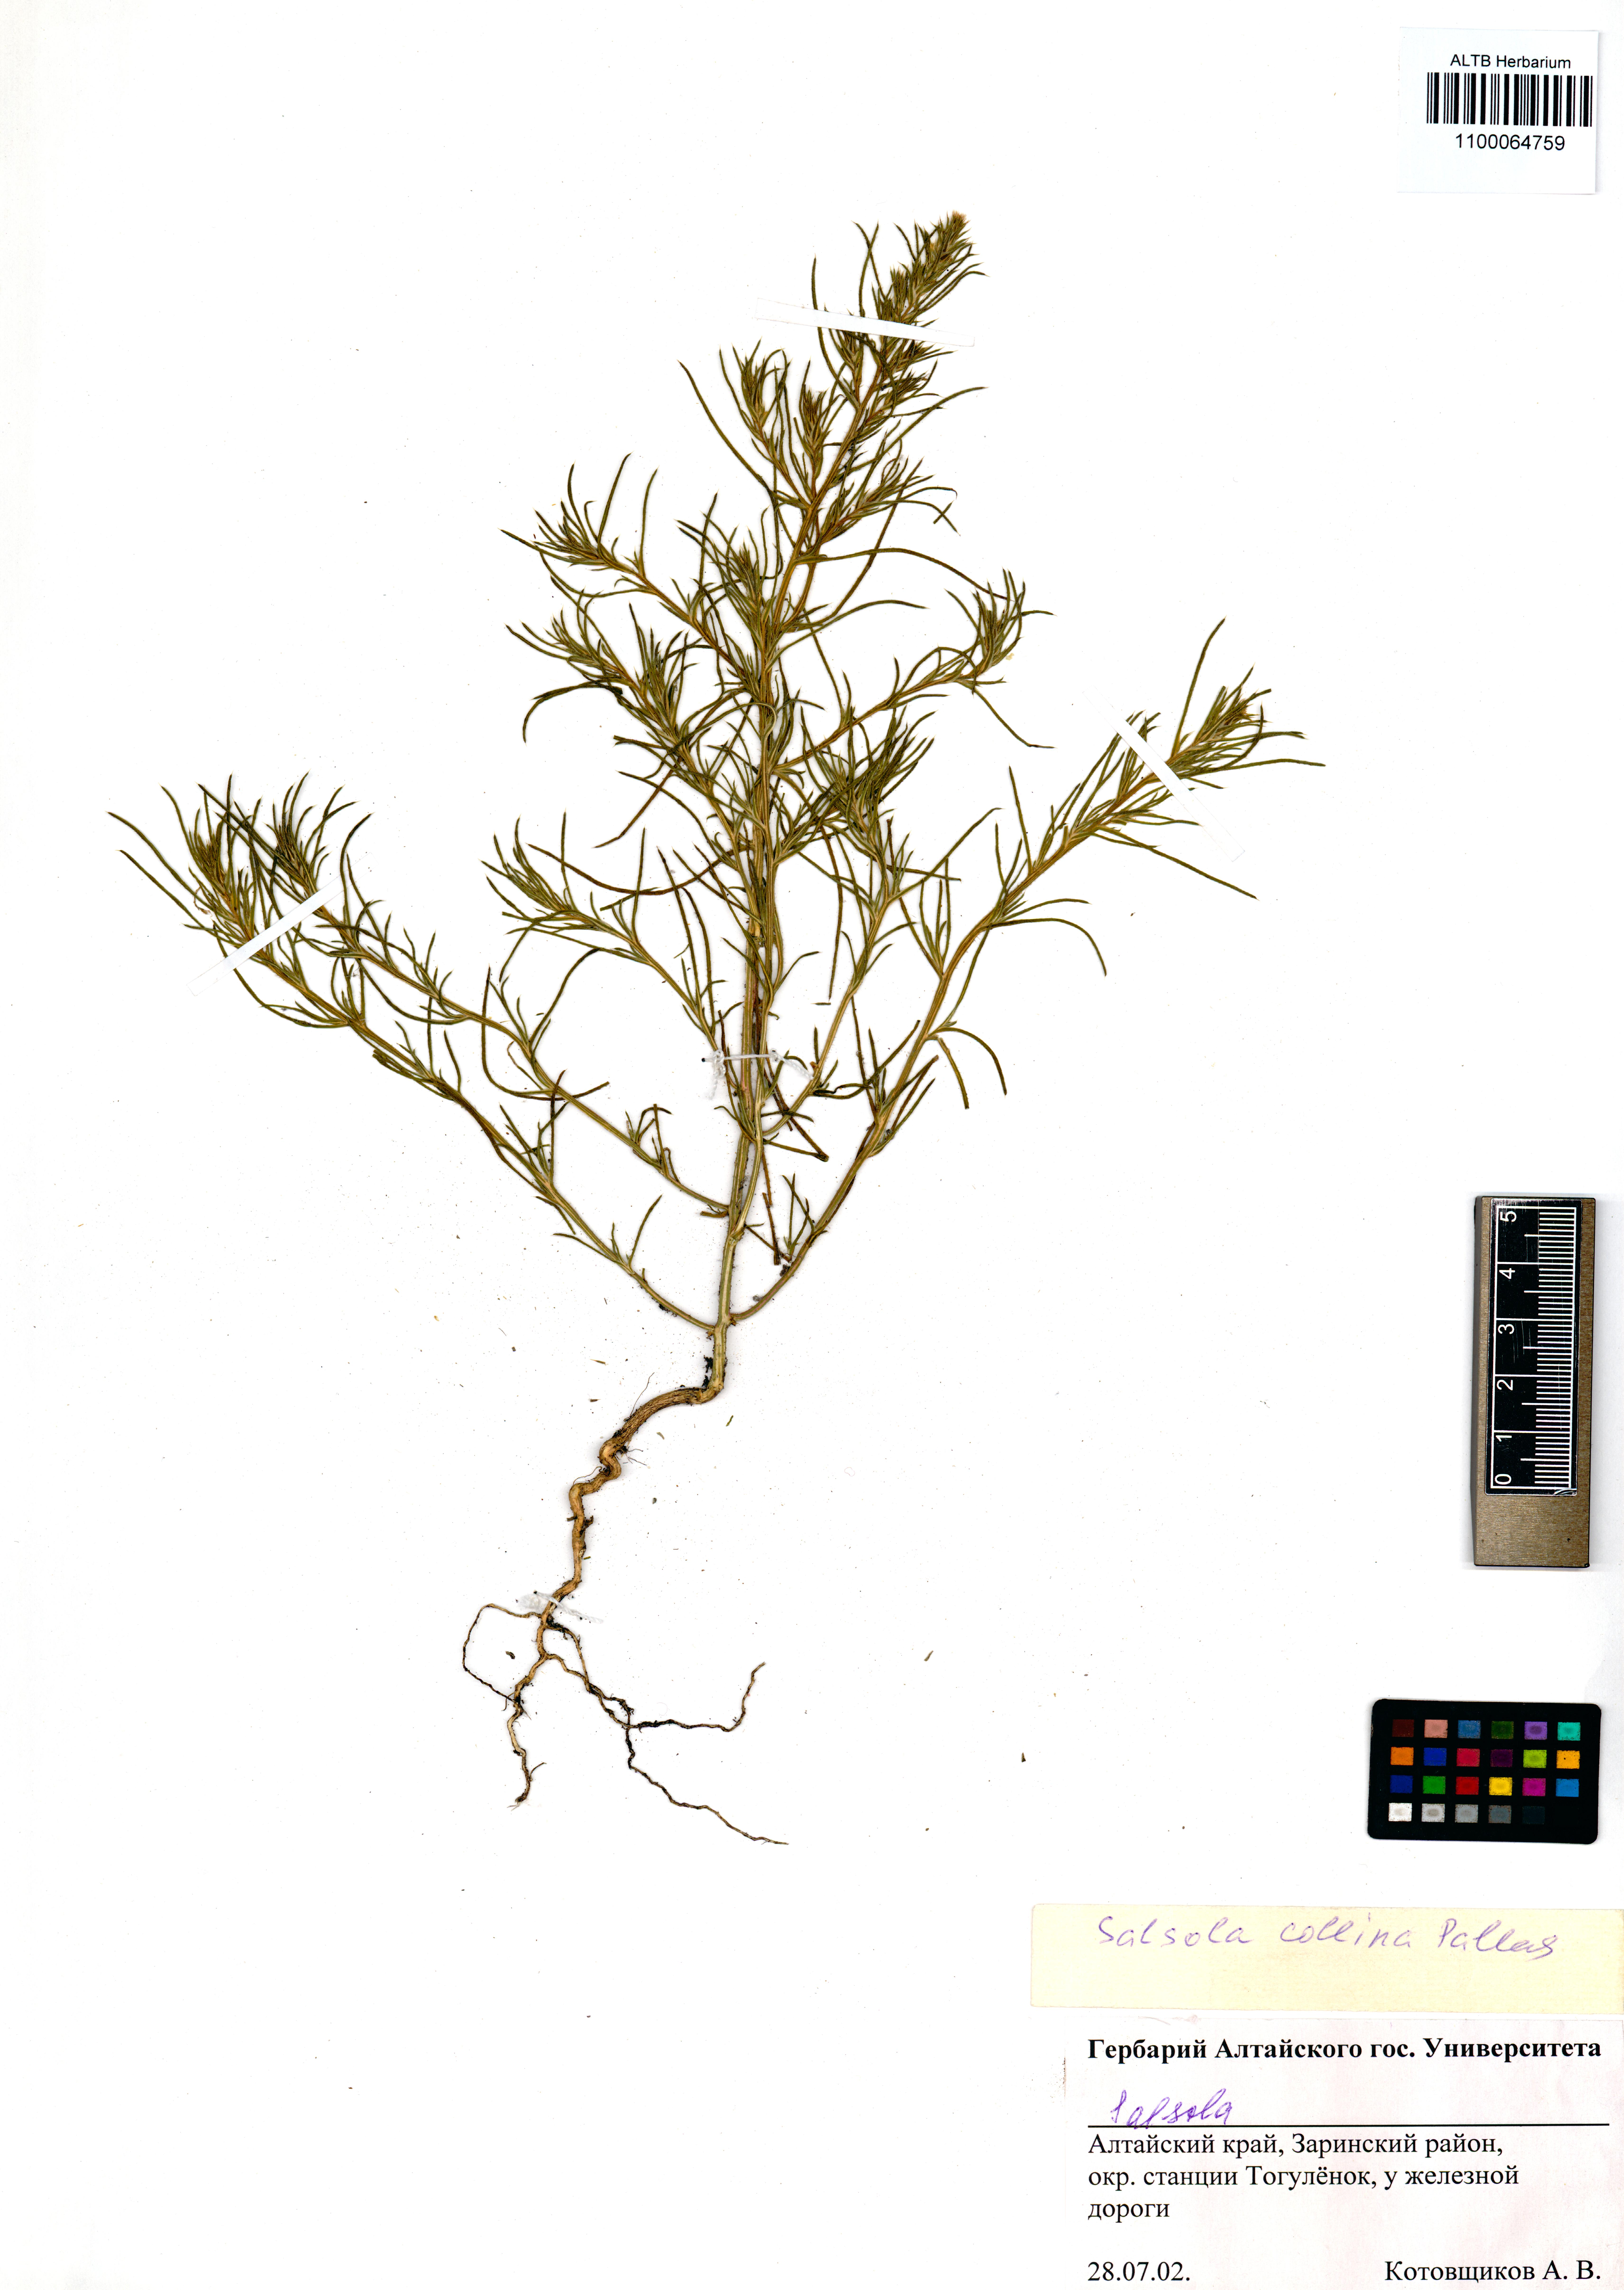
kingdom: Plantae
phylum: Tracheophyta
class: Magnoliopsida
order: Caryophyllales
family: Amaranthaceae
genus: Salsola
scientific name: Salsola collina
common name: Tumbleweed
